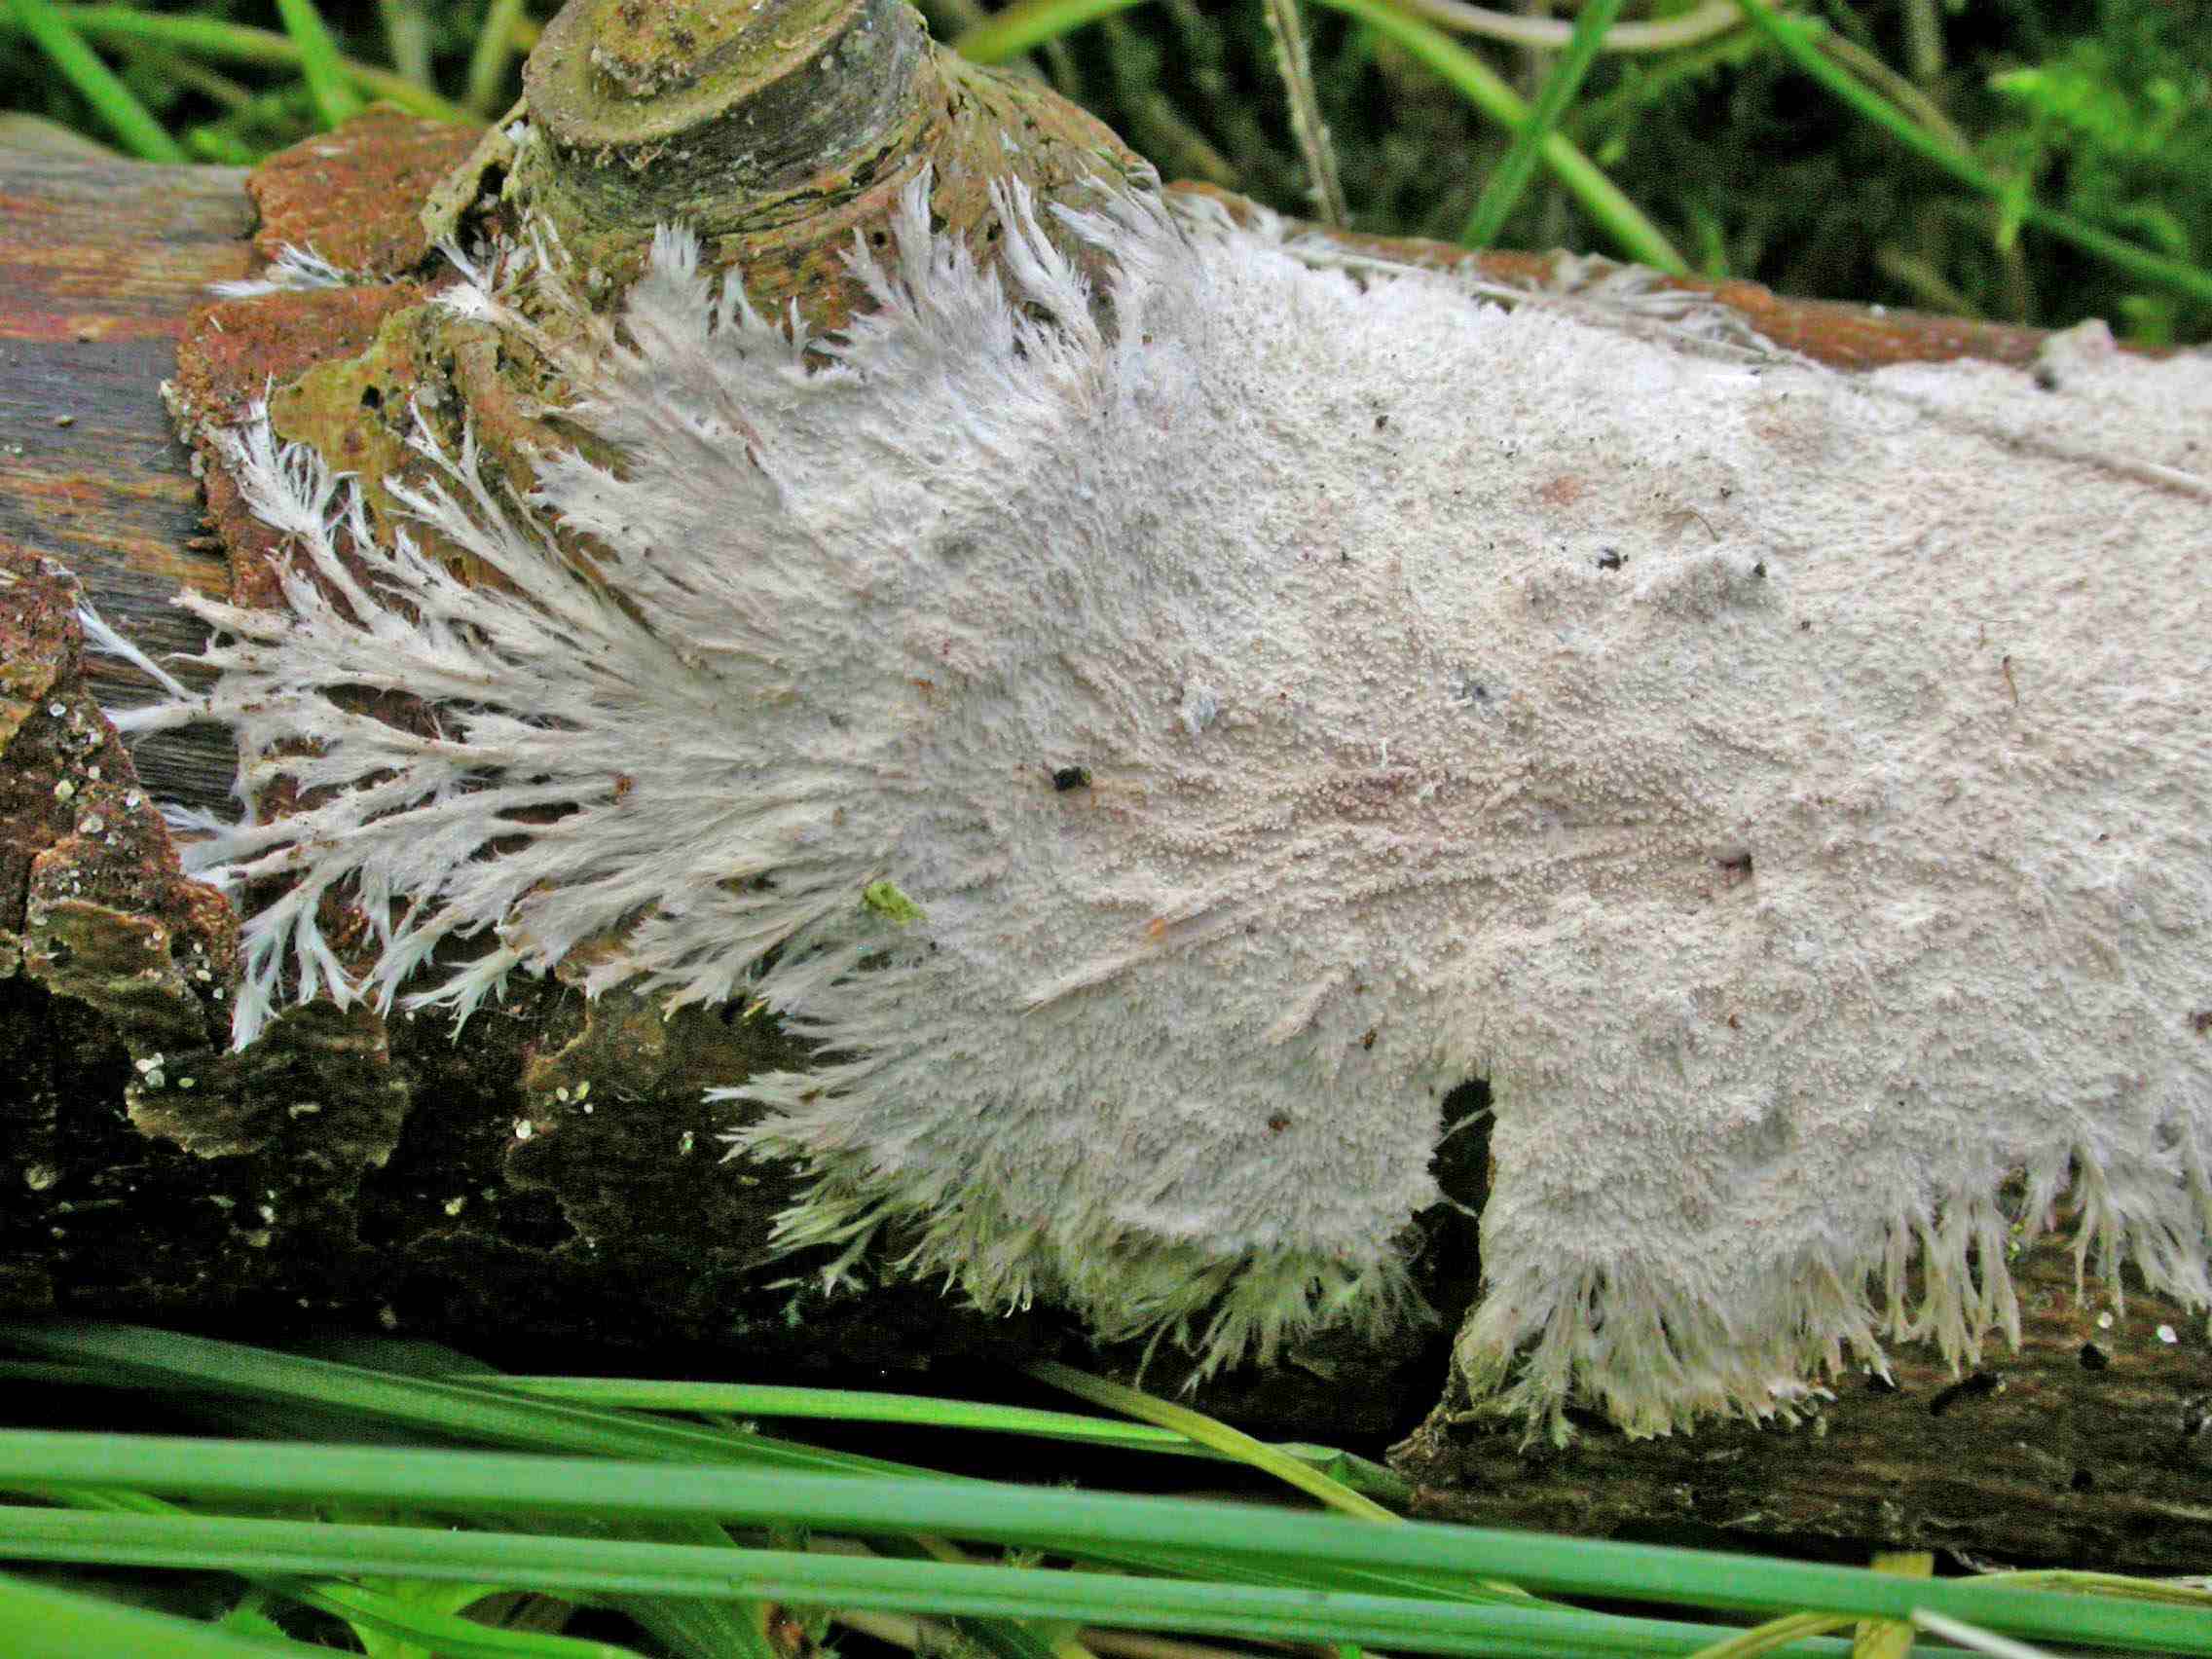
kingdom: Fungi
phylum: Basidiomycota
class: Agaricomycetes
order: Polyporales
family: Steccherinaceae
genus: Steccherinum
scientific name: Steccherinum fimbriatum
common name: trådet skønpig
